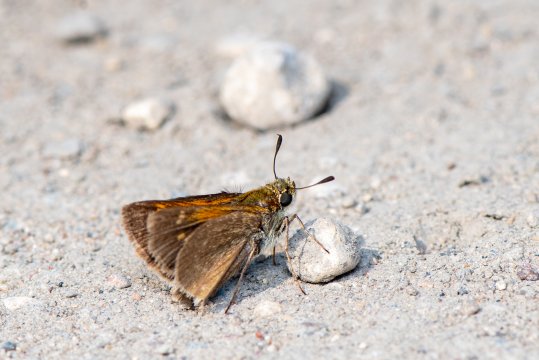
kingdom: Animalia
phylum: Arthropoda
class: Insecta
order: Lepidoptera
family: Hesperiidae
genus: Polites
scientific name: Polites themistocles
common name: Tawny-edged Skipper
